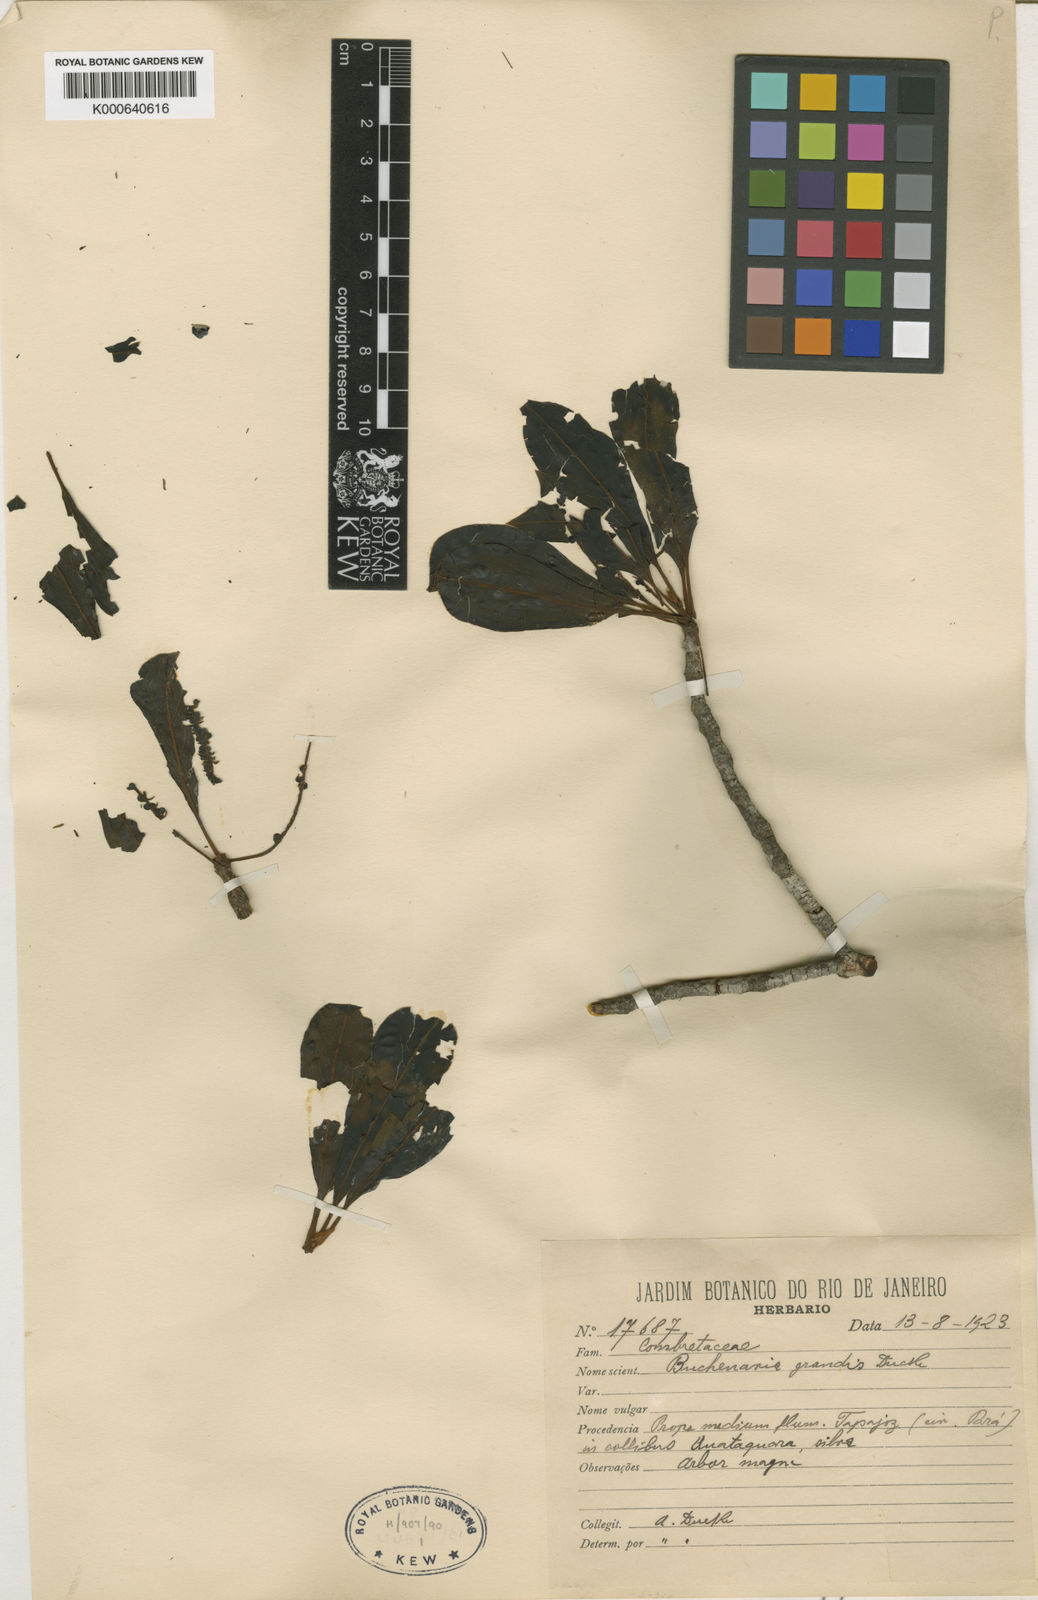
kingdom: Plantae
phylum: Tracheophyta
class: Magnoliopsida
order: Myrtales
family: Combretaceae
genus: Terminalia
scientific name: Terminalia grandis
